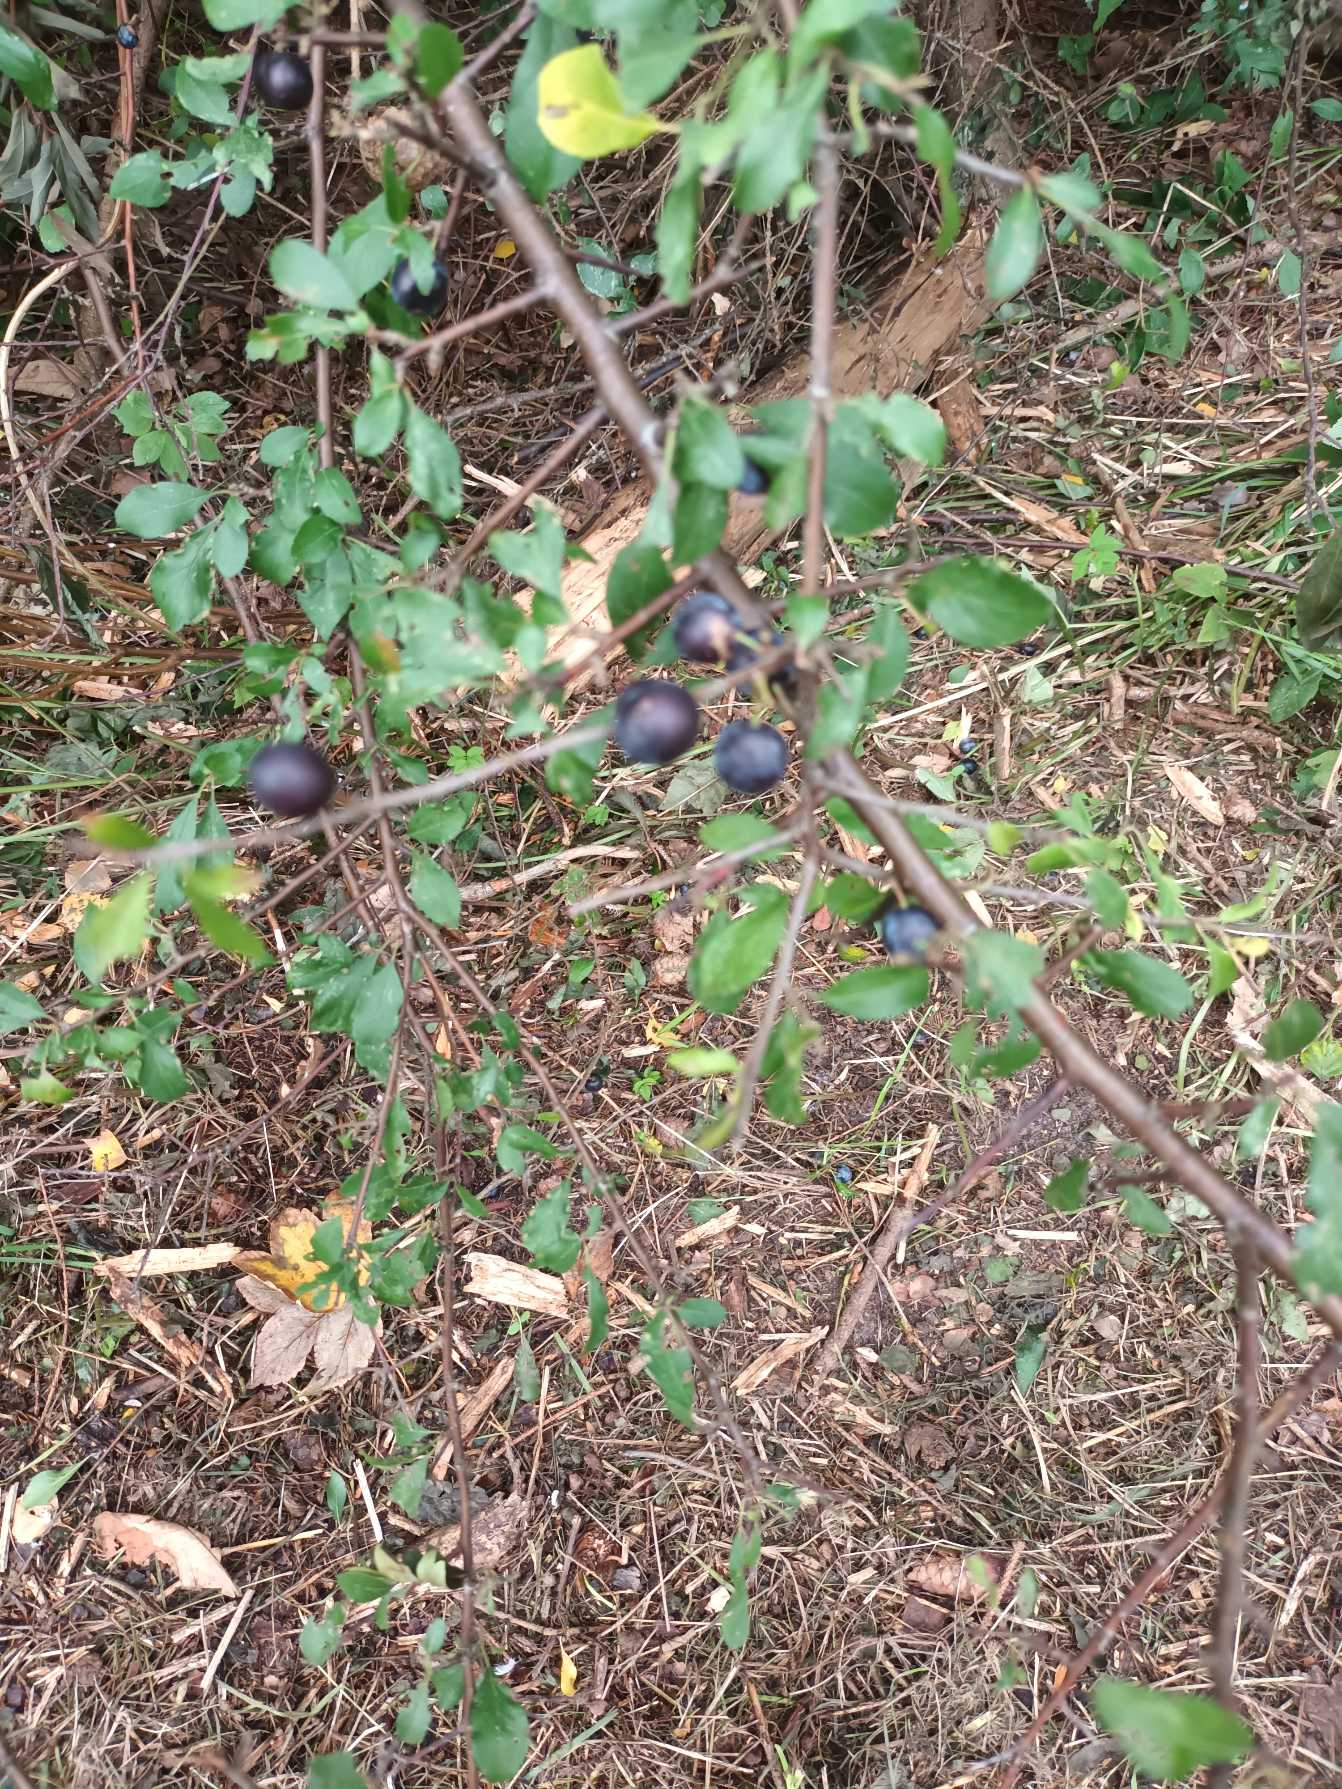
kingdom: Plantae
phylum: Tracheophyta
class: Magnoliopsida
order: Rosales
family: Rosaceae
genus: Prunus
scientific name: Prunus spinosa
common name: Slåen
